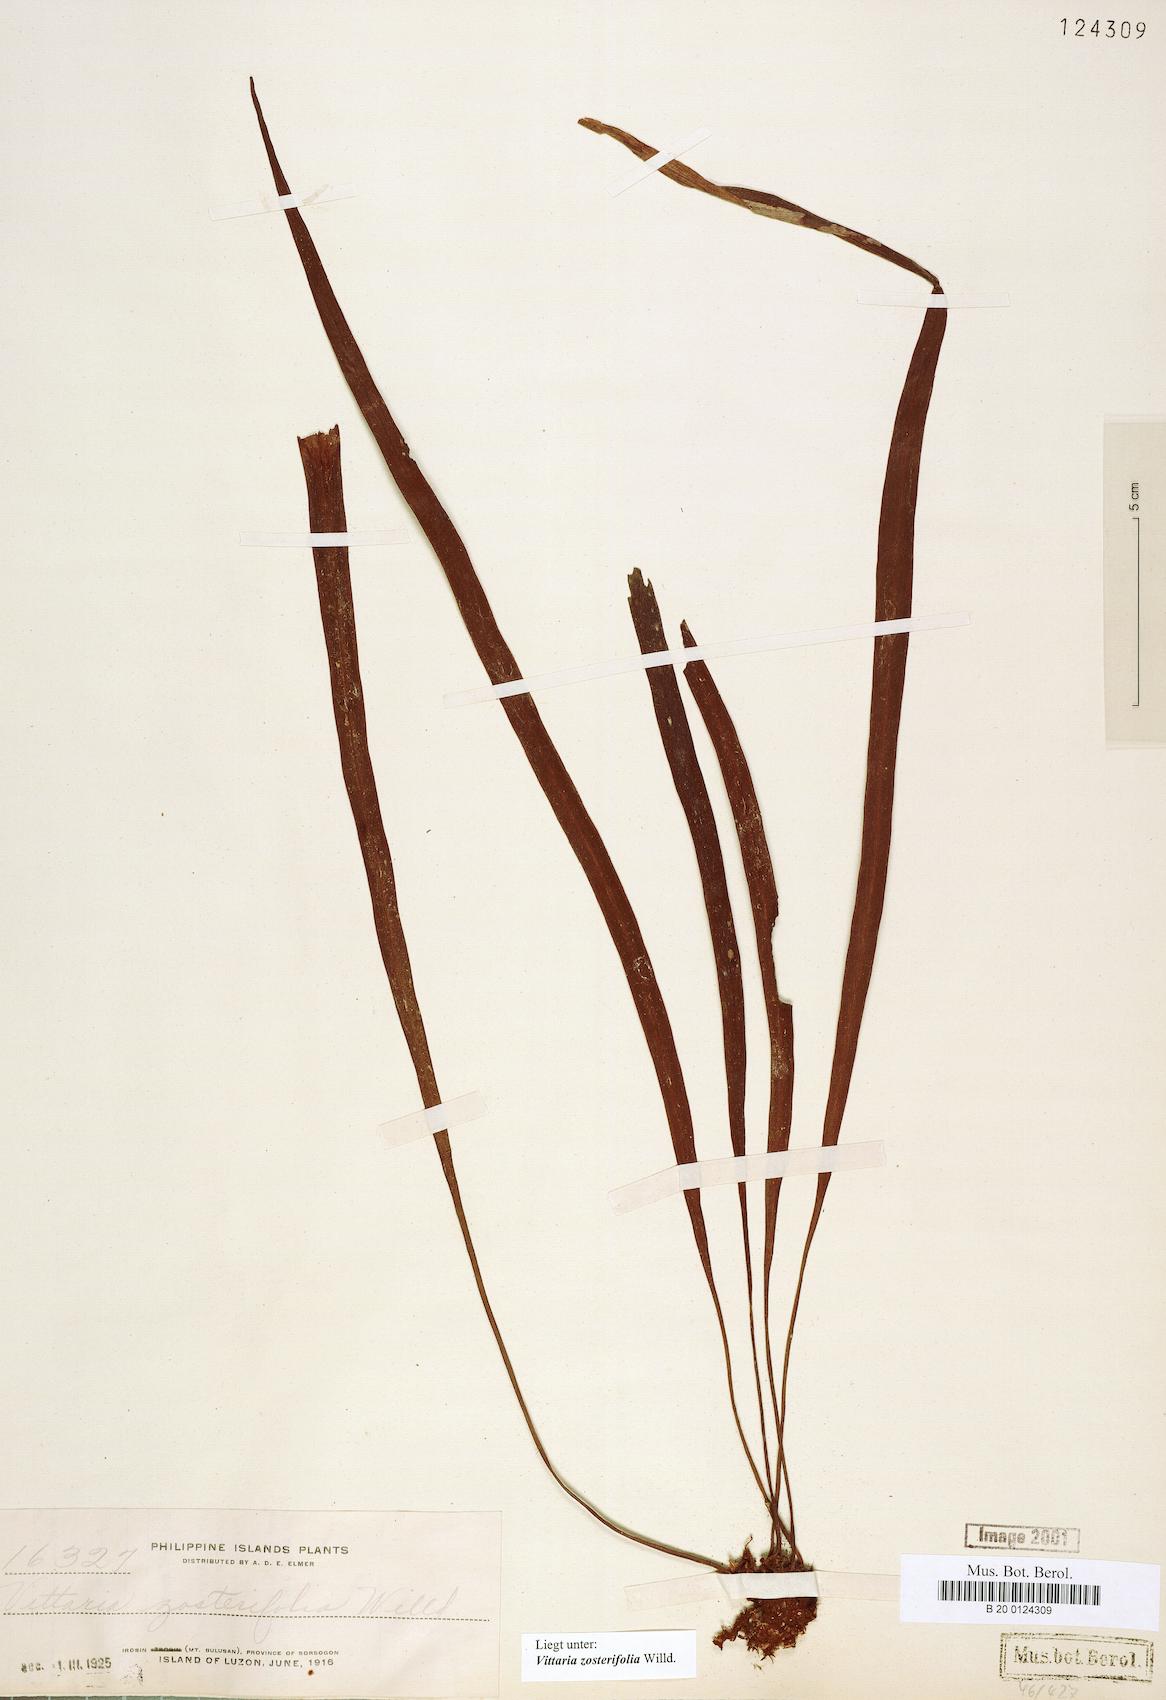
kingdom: Plantae
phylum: Tracheophyta
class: Polypodiopsida
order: Polypodiales
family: Pteridaceae
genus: Haplopteris
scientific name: Haplopteris zosterifolia
